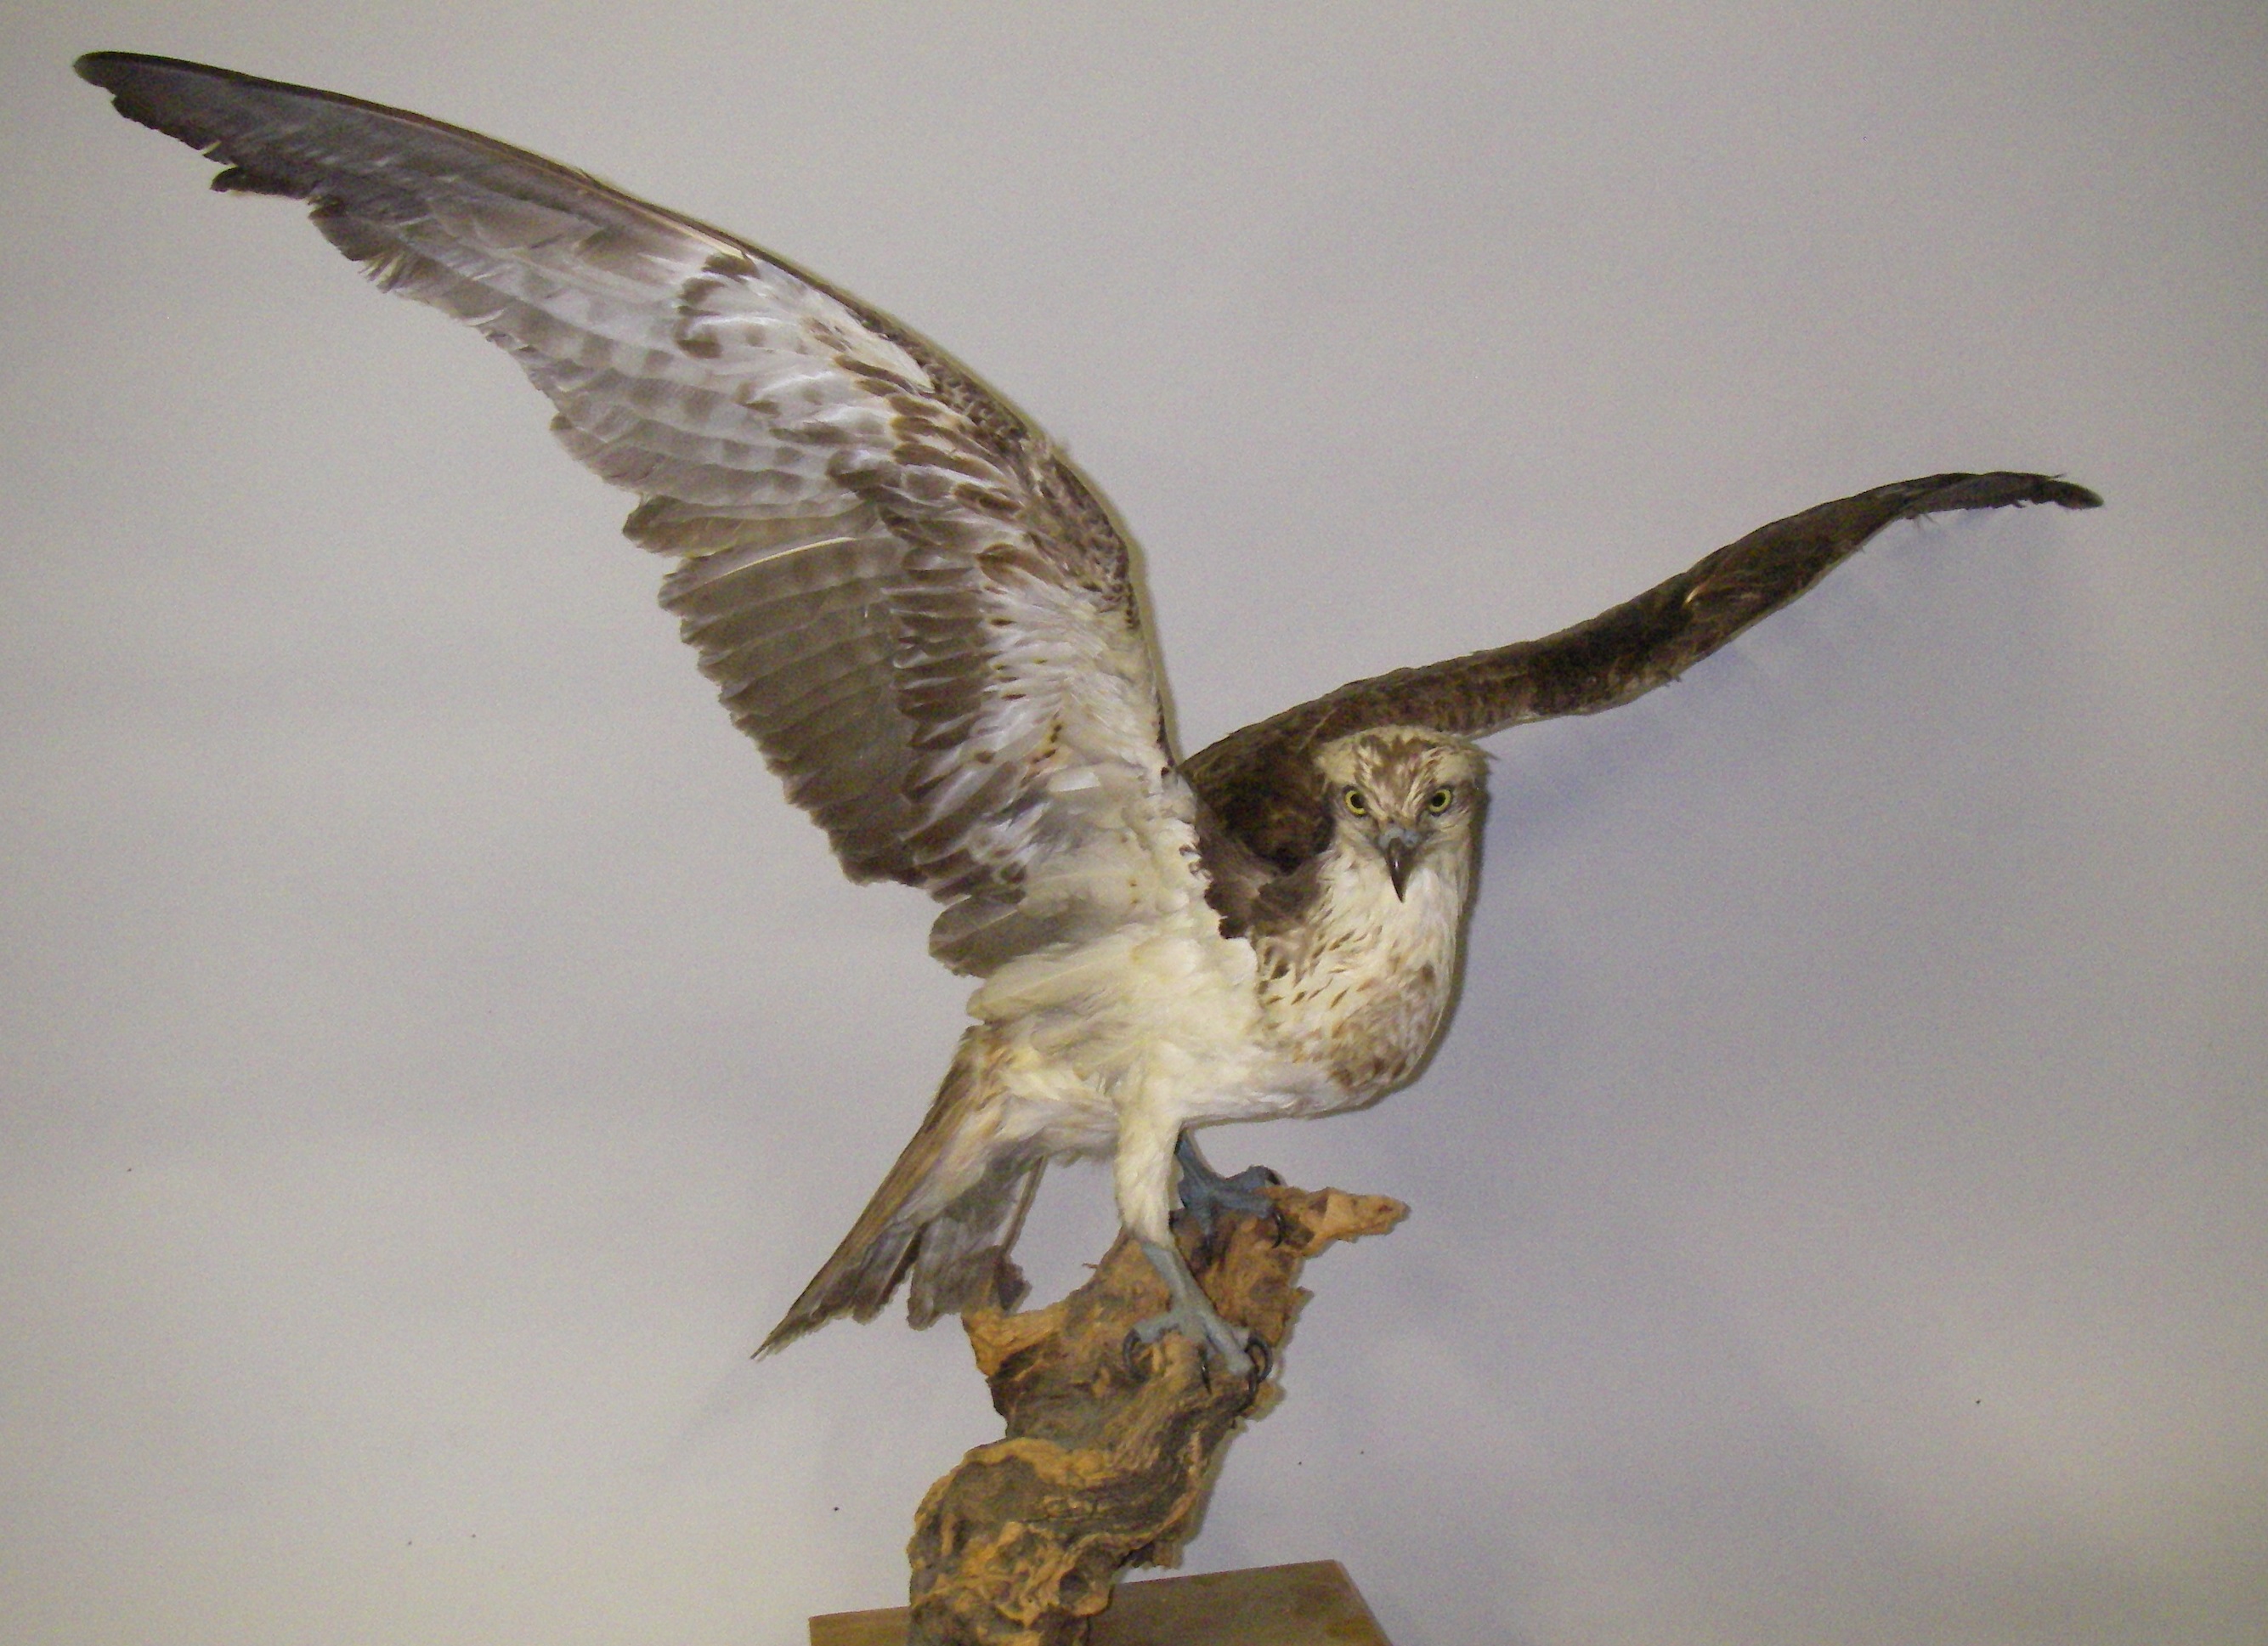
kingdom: Animalia
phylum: Chordata
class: Aves
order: Accipitriformes
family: Pandionidae
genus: Pandion
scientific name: Pandion haliaetus
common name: Osprey
